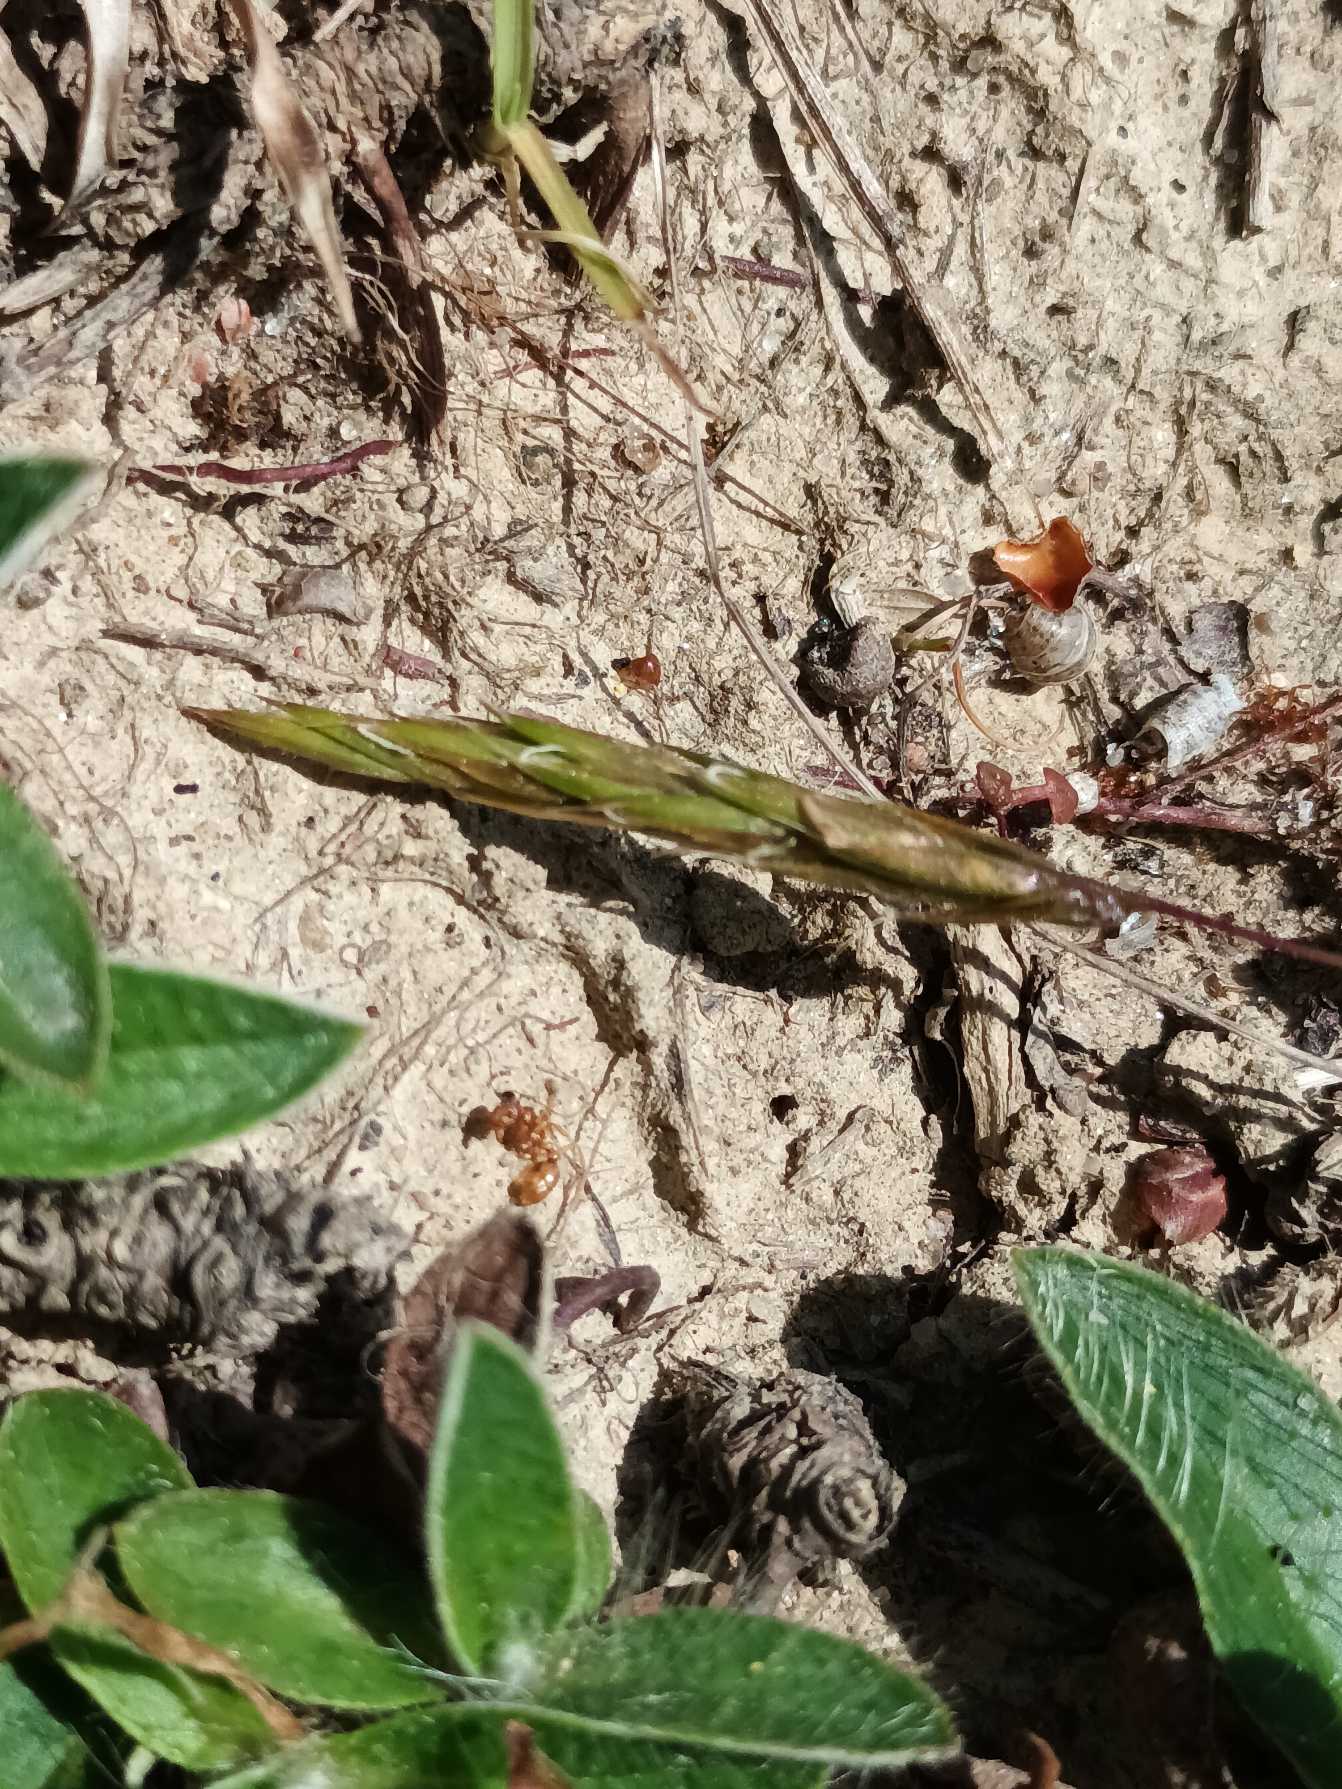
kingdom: Plantae
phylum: Tracheophyta
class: Liliopsida
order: Poales
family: Poaceae
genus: Anthoxanthum
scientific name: Anthoxanthum odoratum
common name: Vellugtende gulaks
